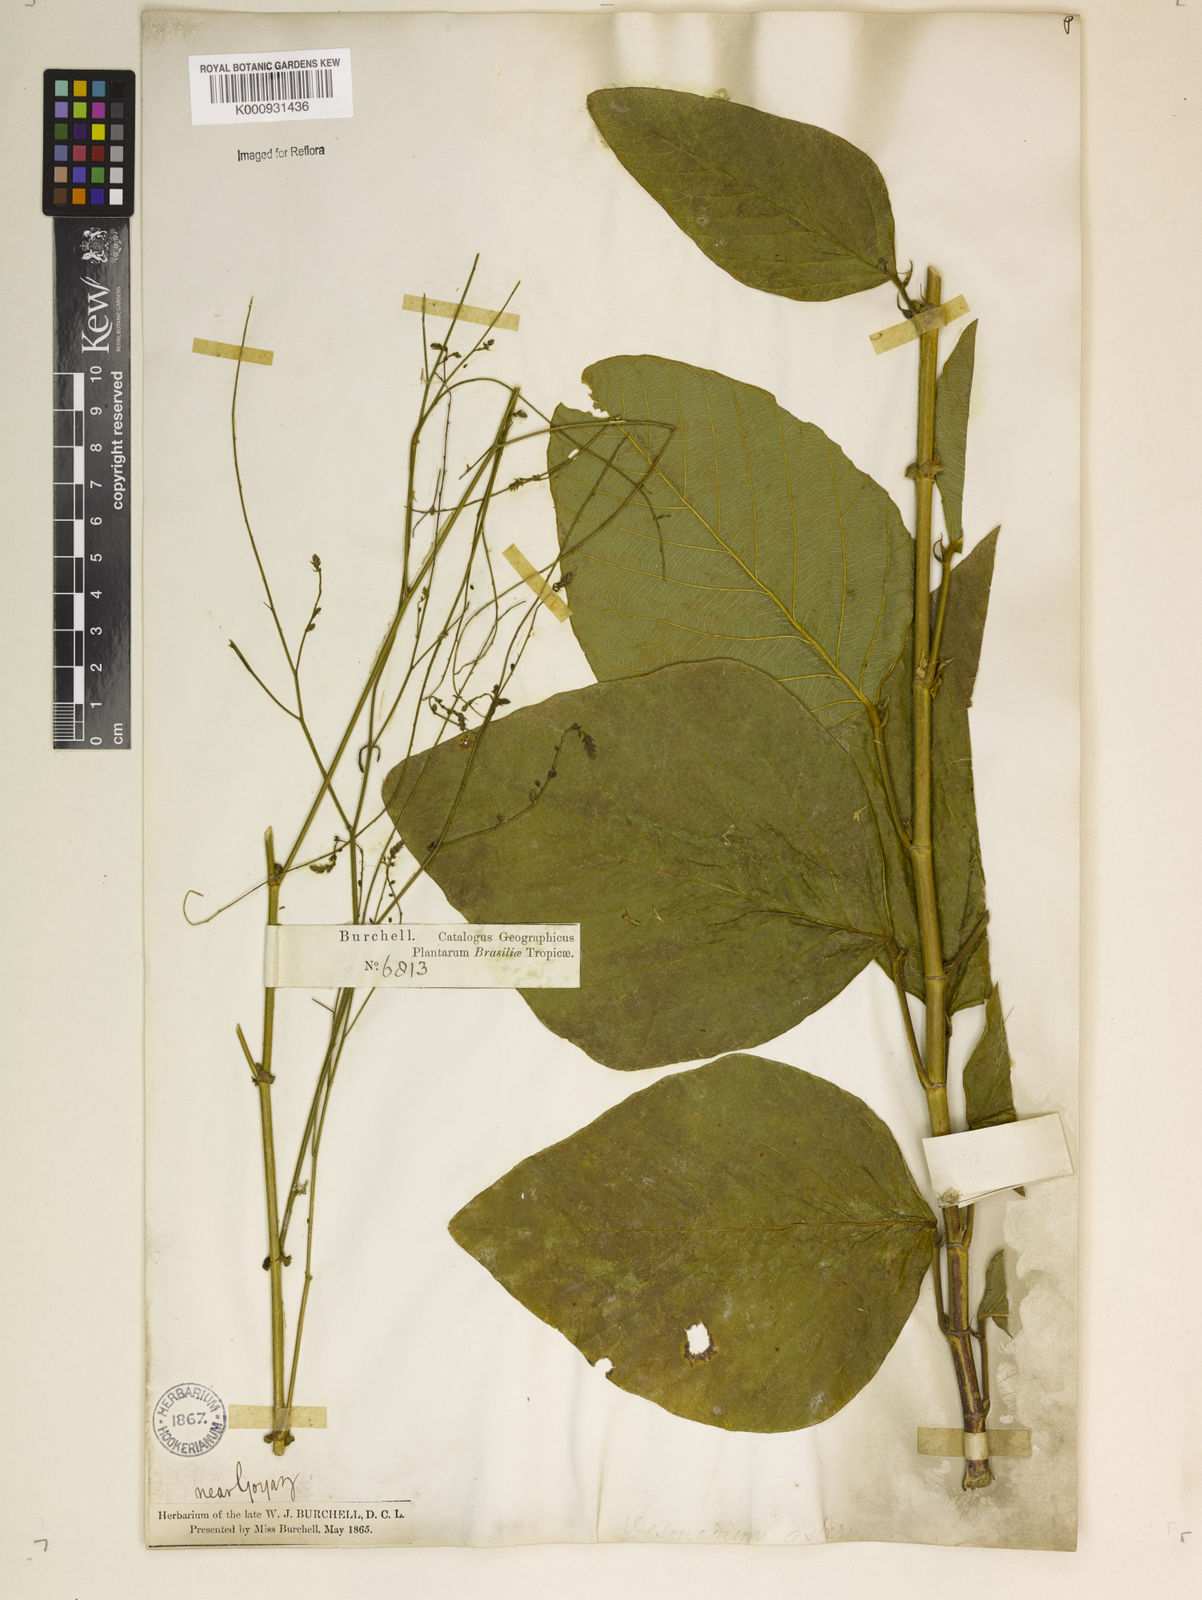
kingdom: Plantae
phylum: Tracheophyta
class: Magnoliopsida
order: Fabales
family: Fabaceae
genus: Desmodium
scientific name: Desmodium distortum
